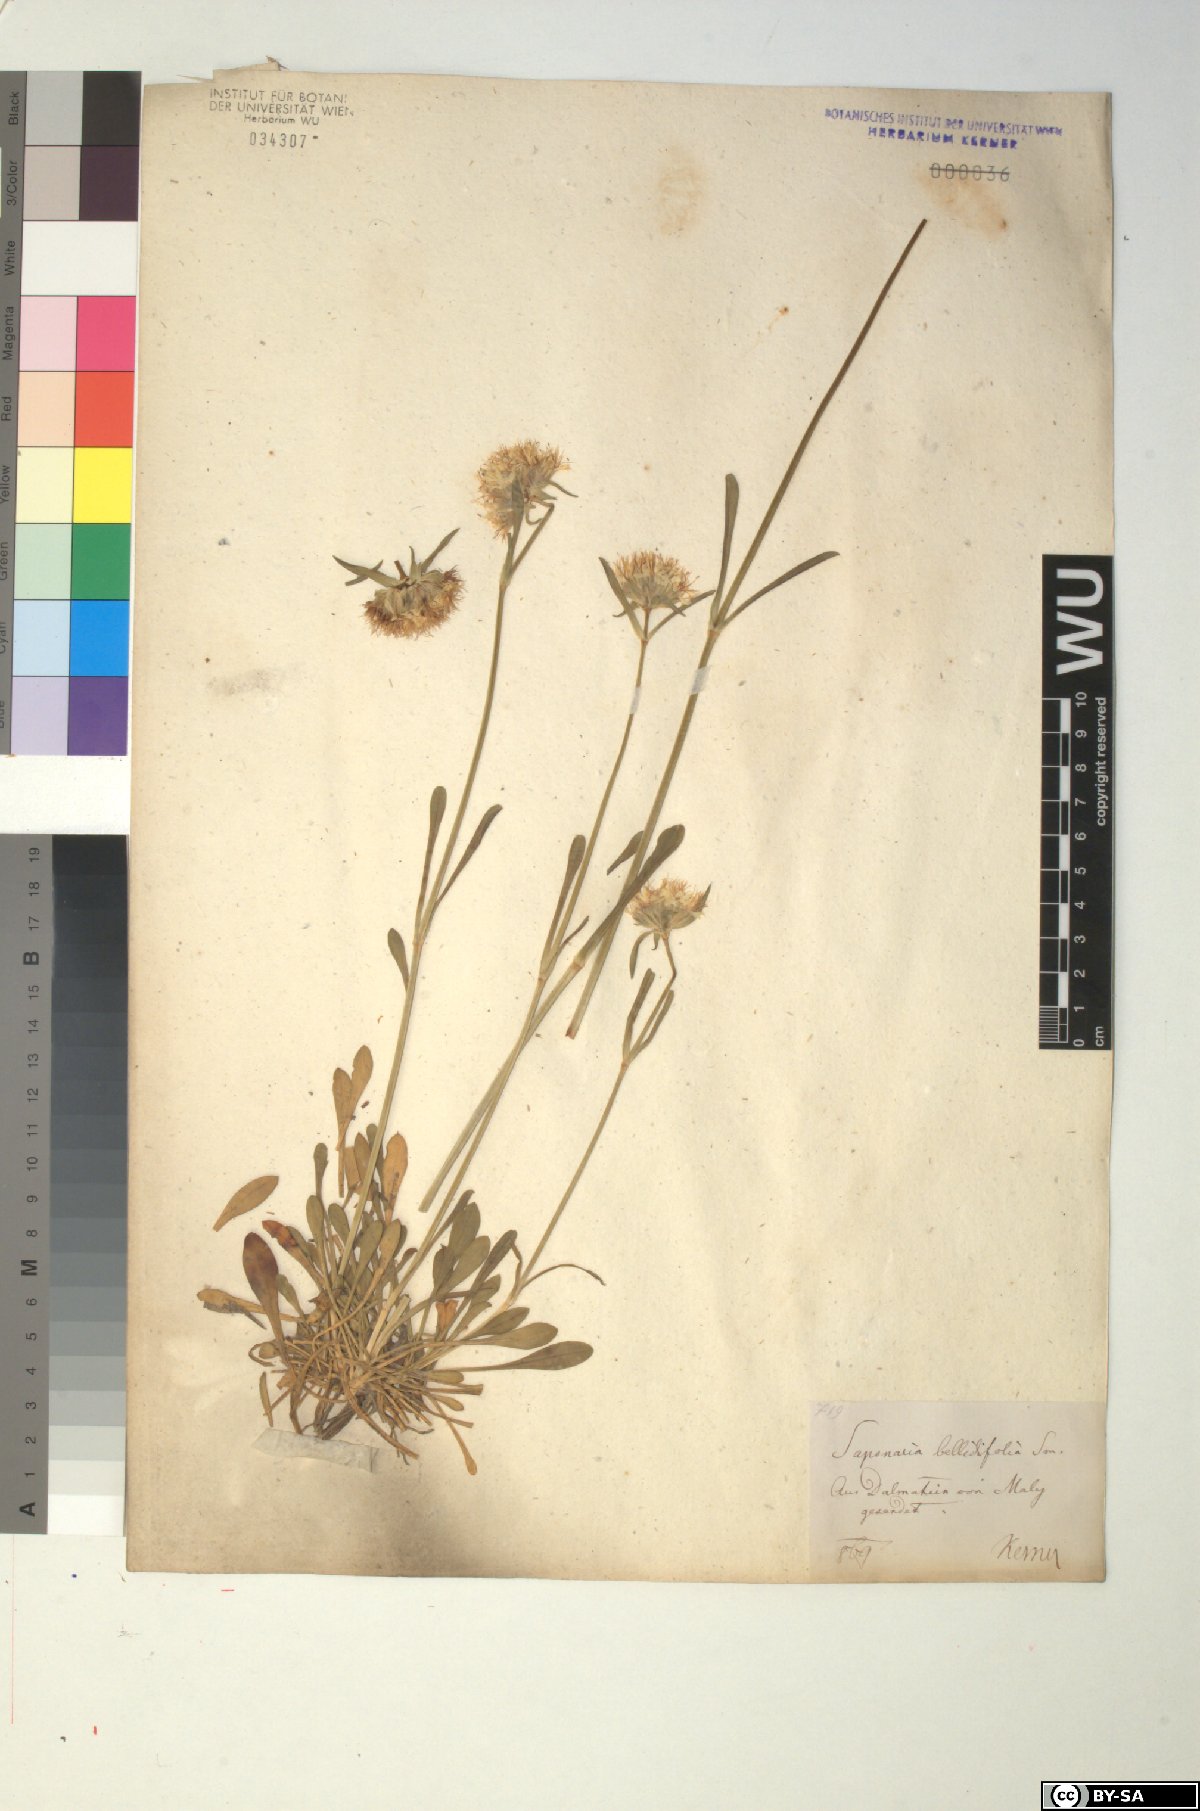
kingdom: Plantae
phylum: Tracheophyta
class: Magnoliopsida
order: Caryophyllales
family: Caryophyllaceae
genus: Saponaria
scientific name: Saponaria bellidifolia
